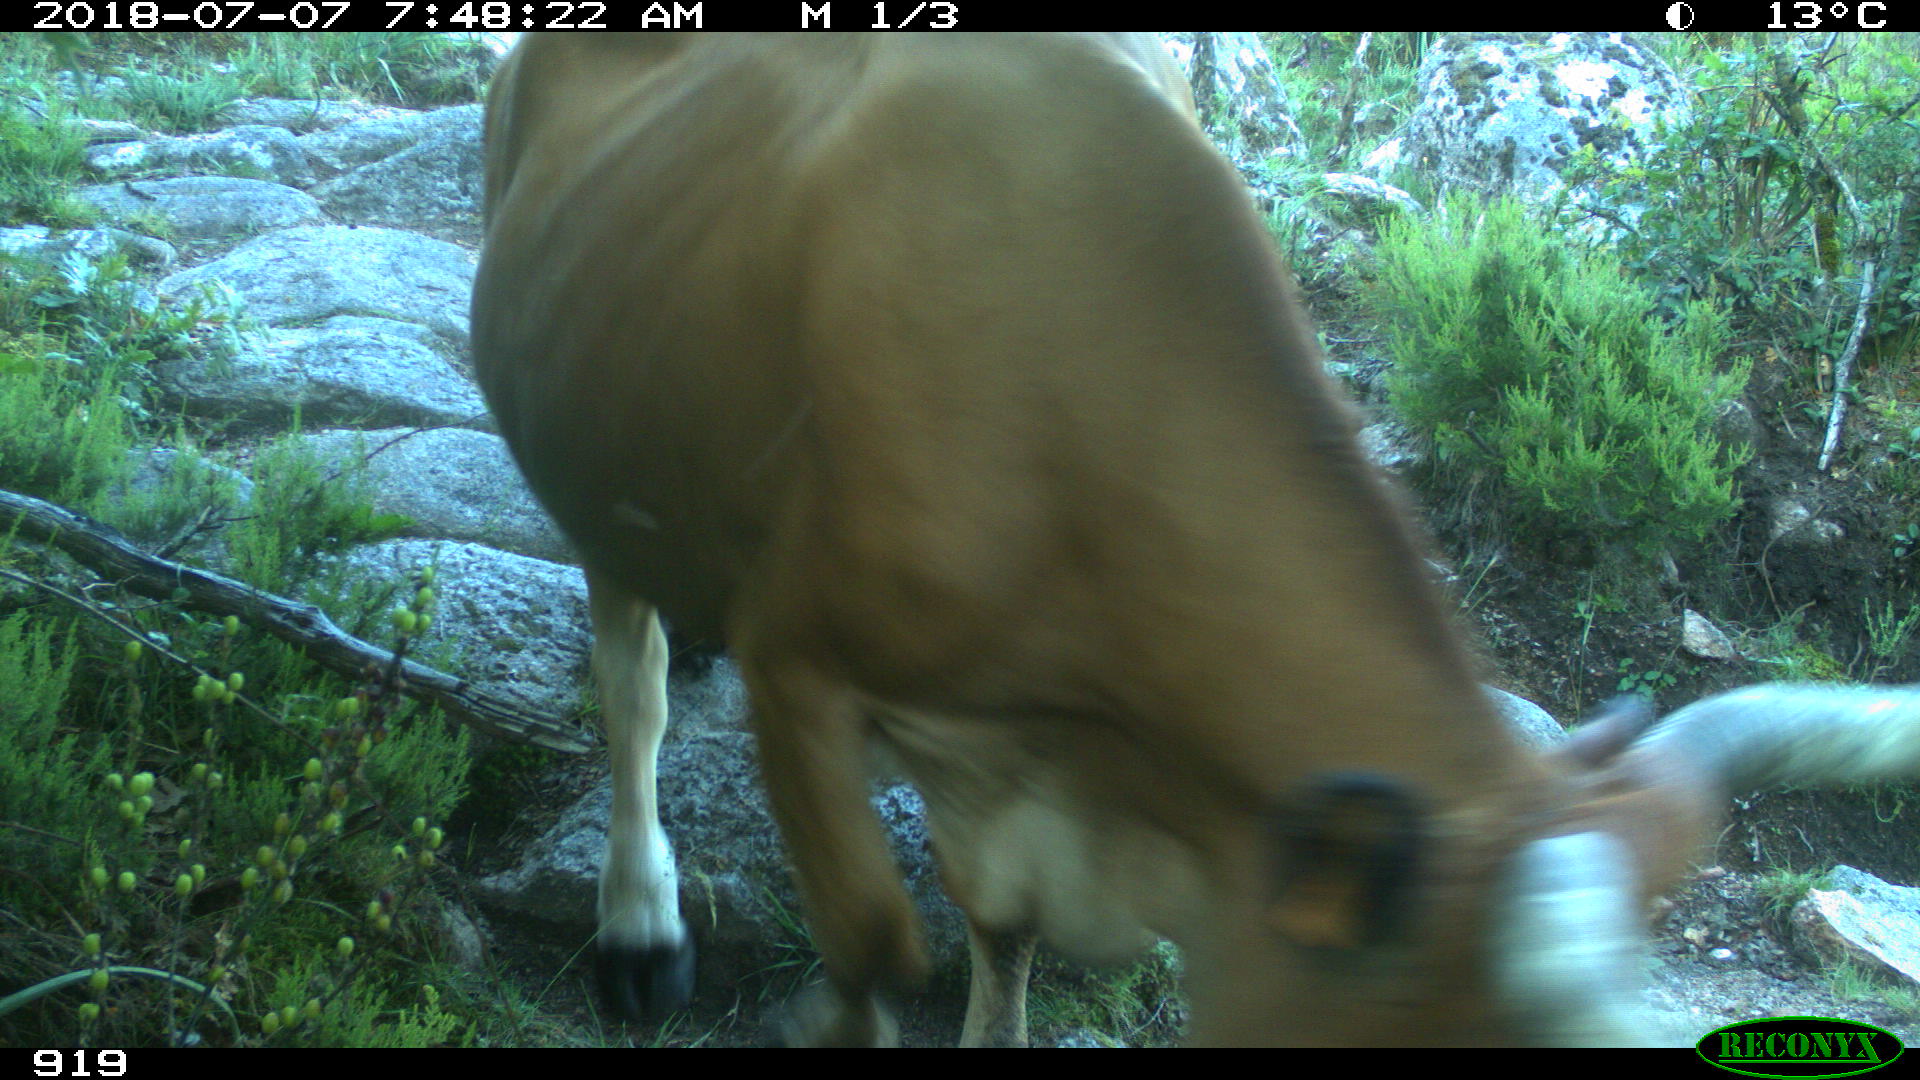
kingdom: Animalia
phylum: Chordata
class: Mammalia
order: Artiodactyla
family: Bovidae
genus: Bos
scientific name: Bos taurus
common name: Domesticated cattle
